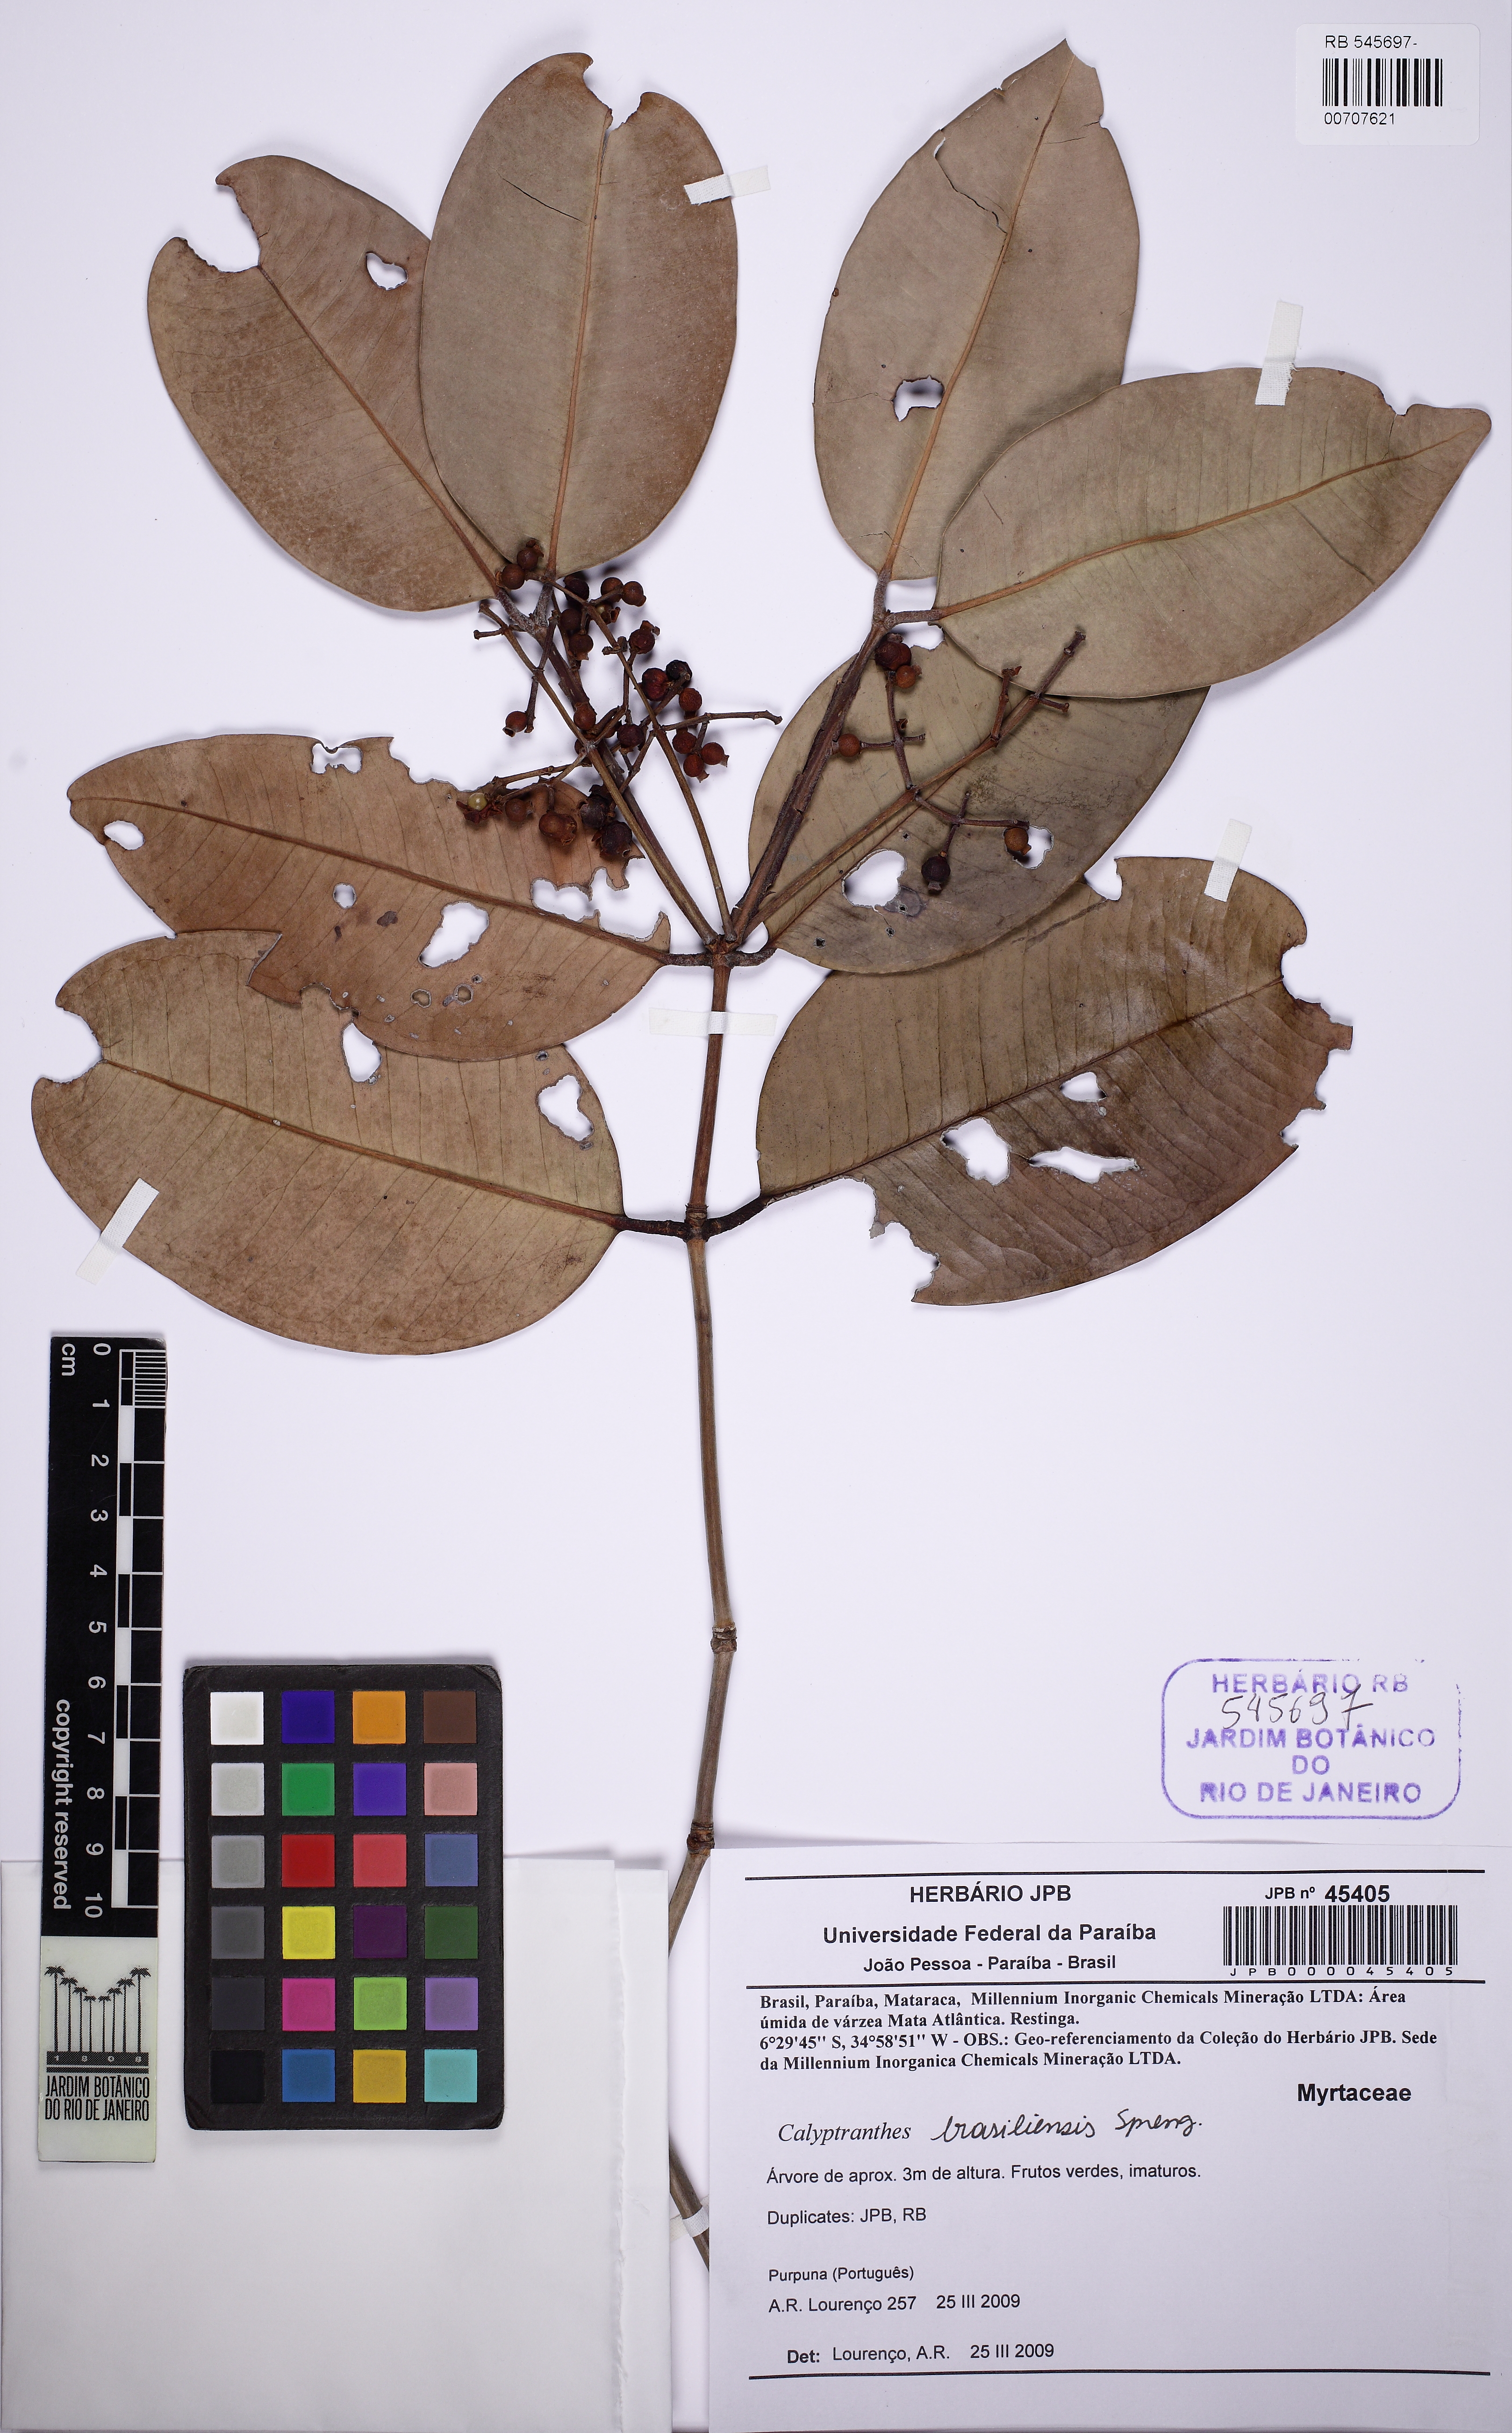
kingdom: Plantae
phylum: Tracheophyta
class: Magnoliopsida
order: Myrtales
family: Myrtaceae
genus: Myrcia
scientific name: Myrcia neobrasiliensis
